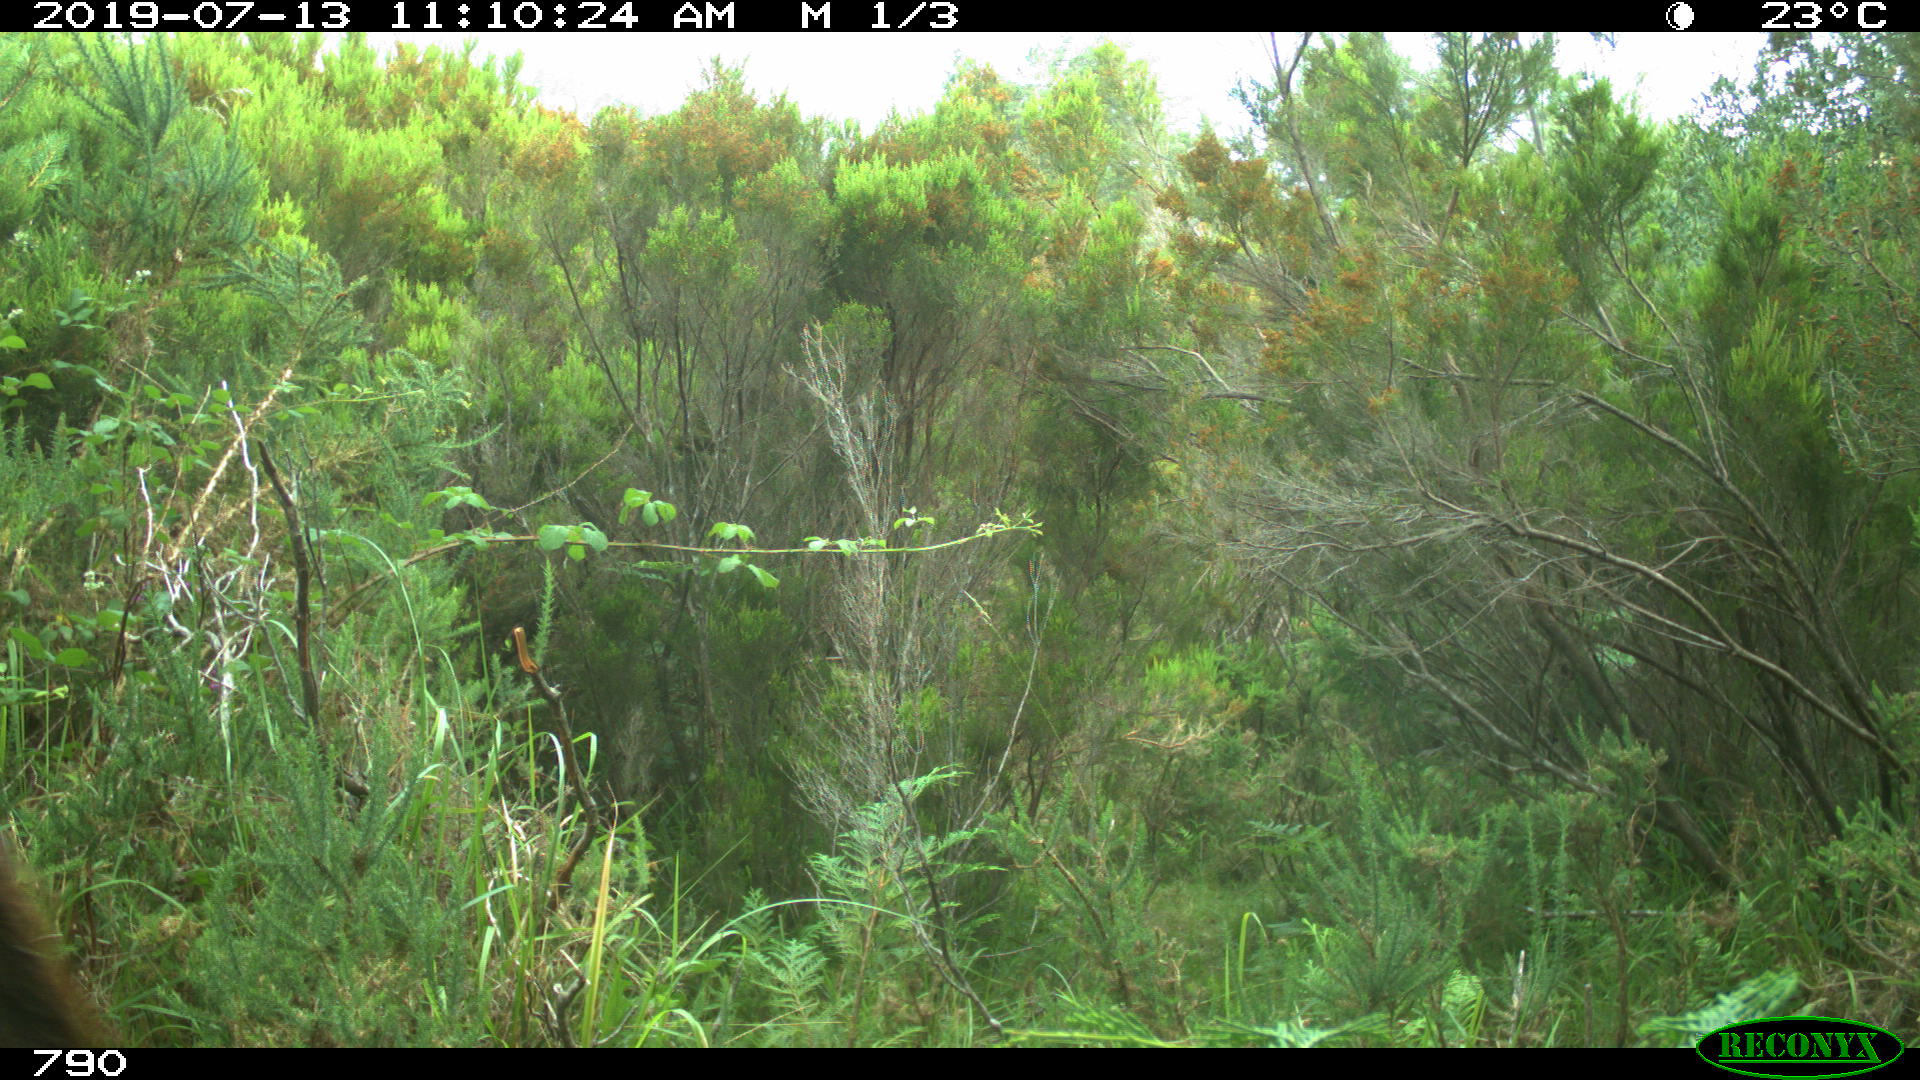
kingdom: Animalia
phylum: Chordata
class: Mammalia
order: Artiodactyla
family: Bovidae
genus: Bos
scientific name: Bos taurus
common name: Domesticated cattle
